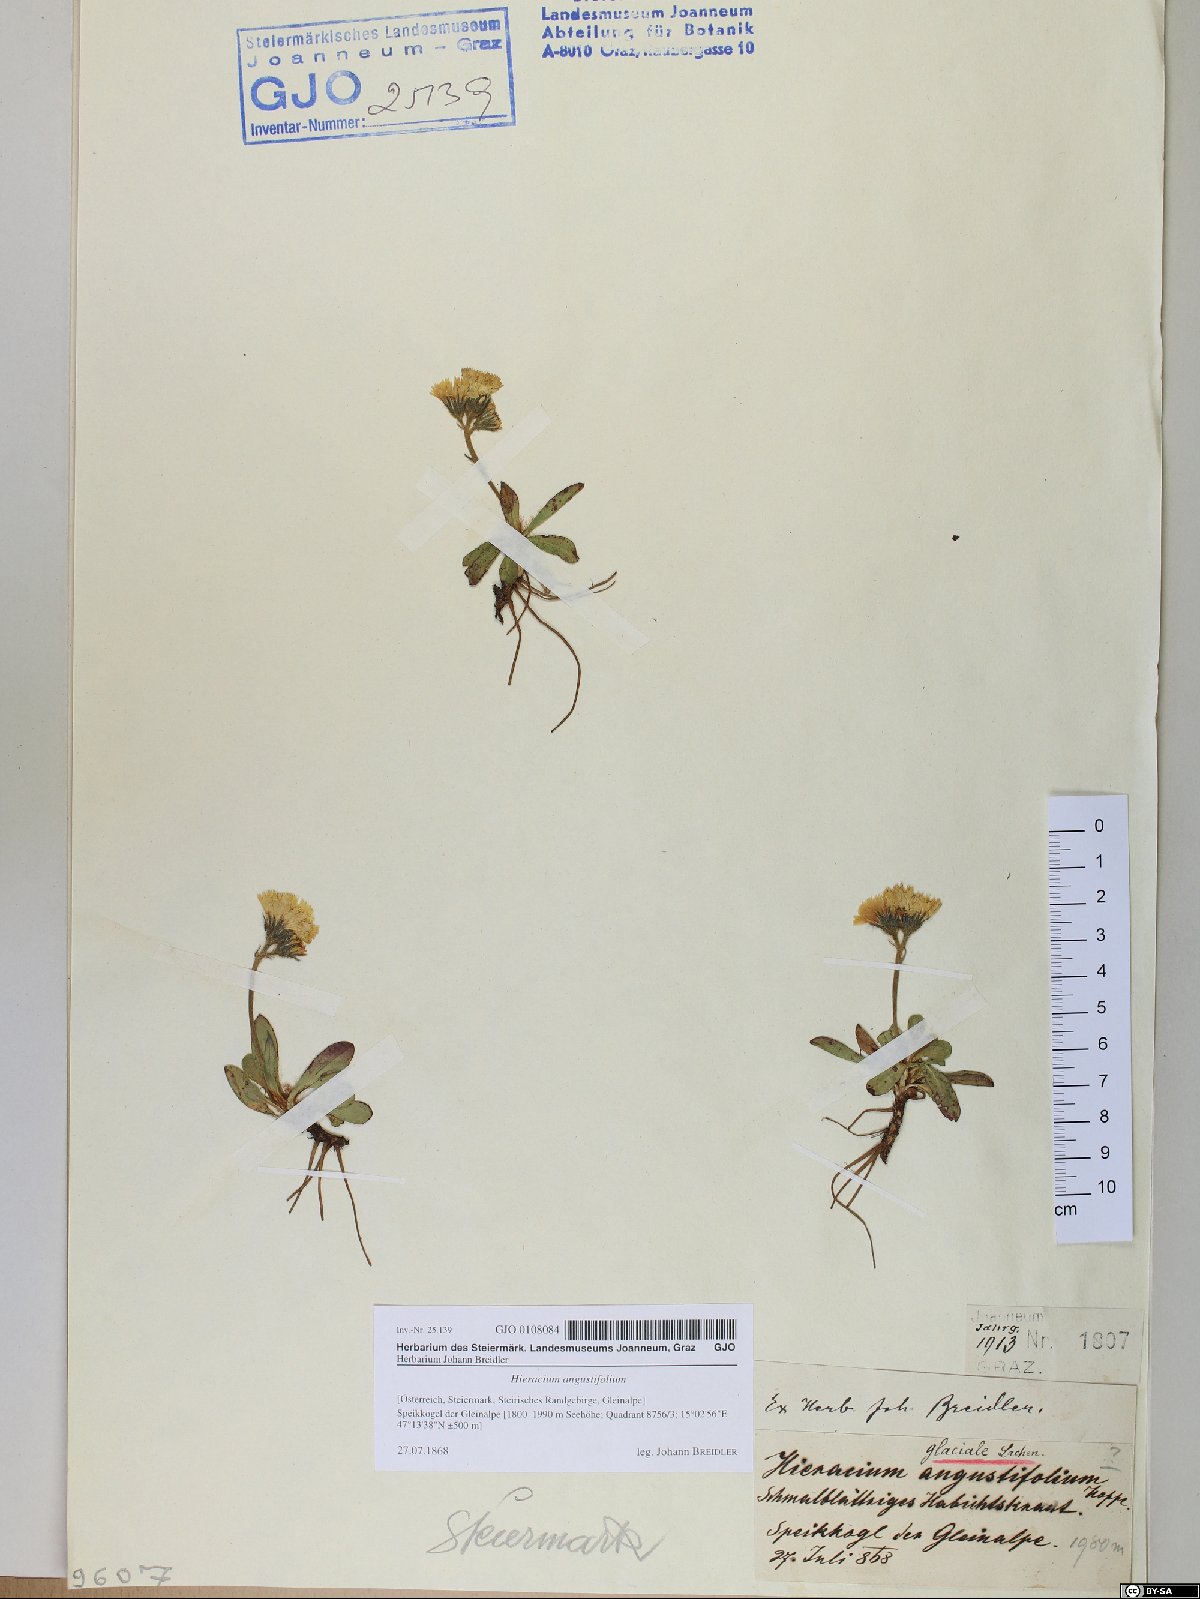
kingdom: Plantae
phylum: Tracheophyta
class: Magnoliopsida
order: Asterales
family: Asteraceae
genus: Pilosella
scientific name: Pilosella glacialis
